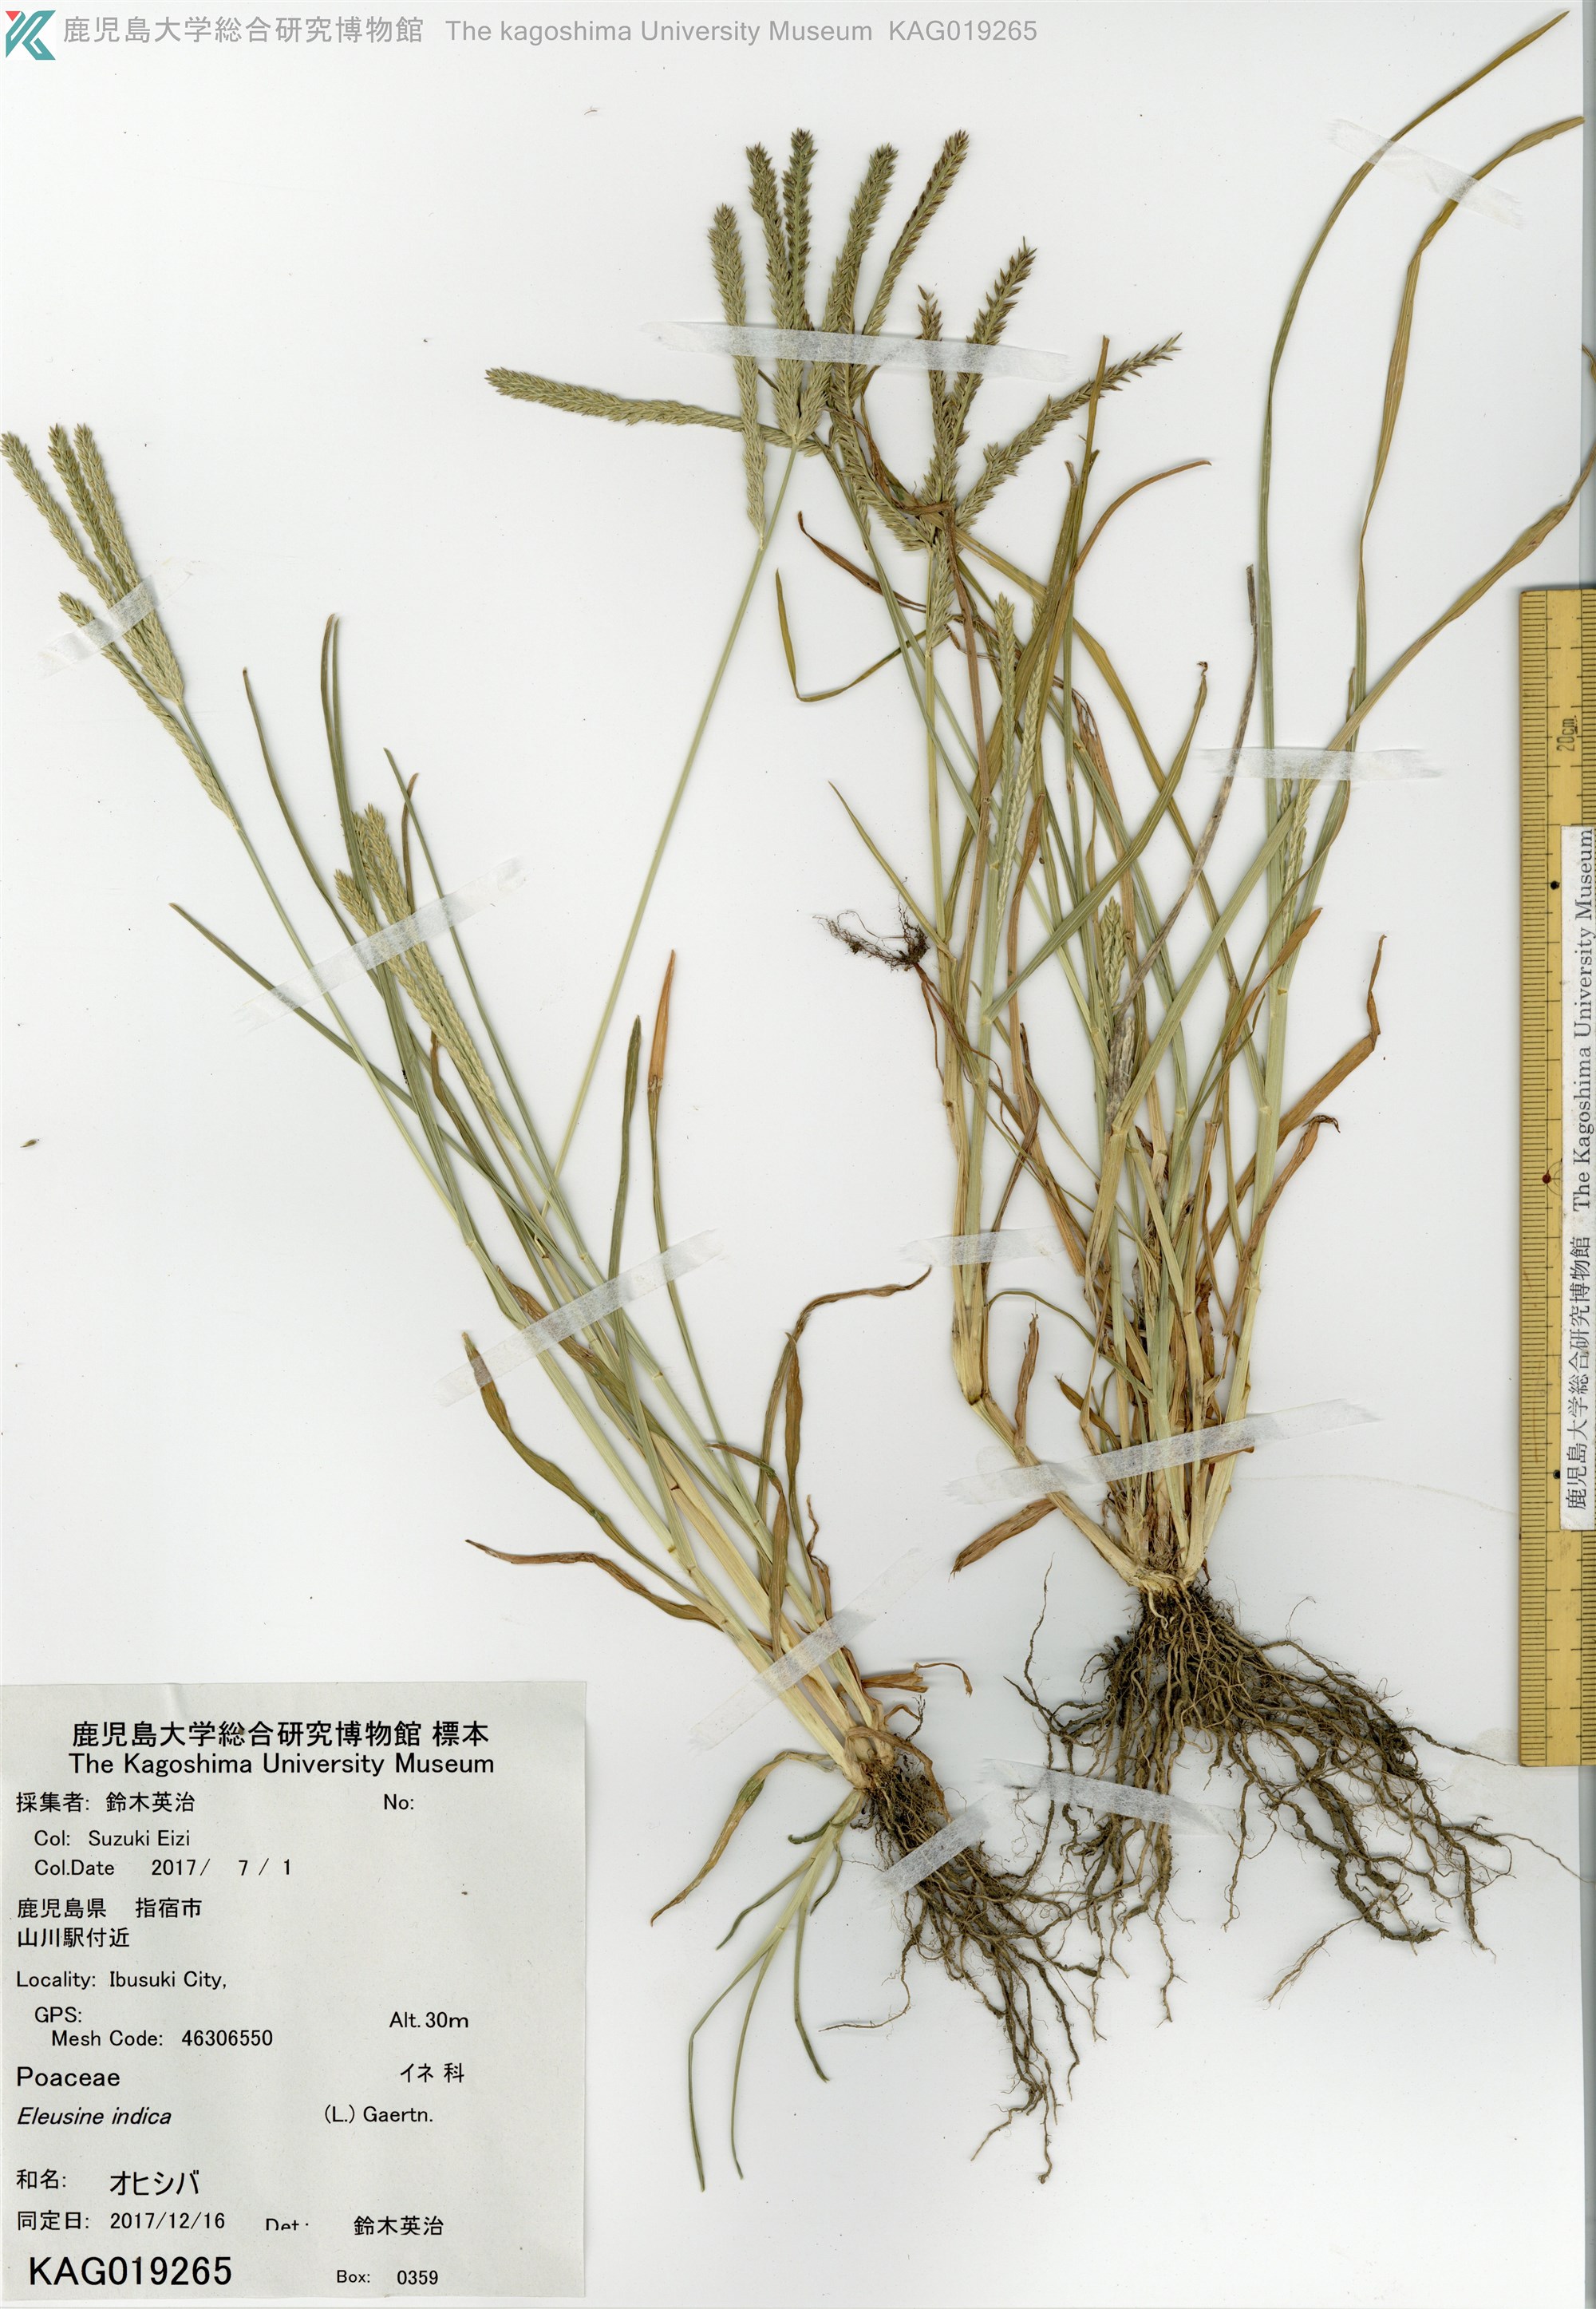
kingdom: Plantae
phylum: Tracheophyta
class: Liliopsida
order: Poales
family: Poaceae
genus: Eleusine
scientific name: Eleusine indica
